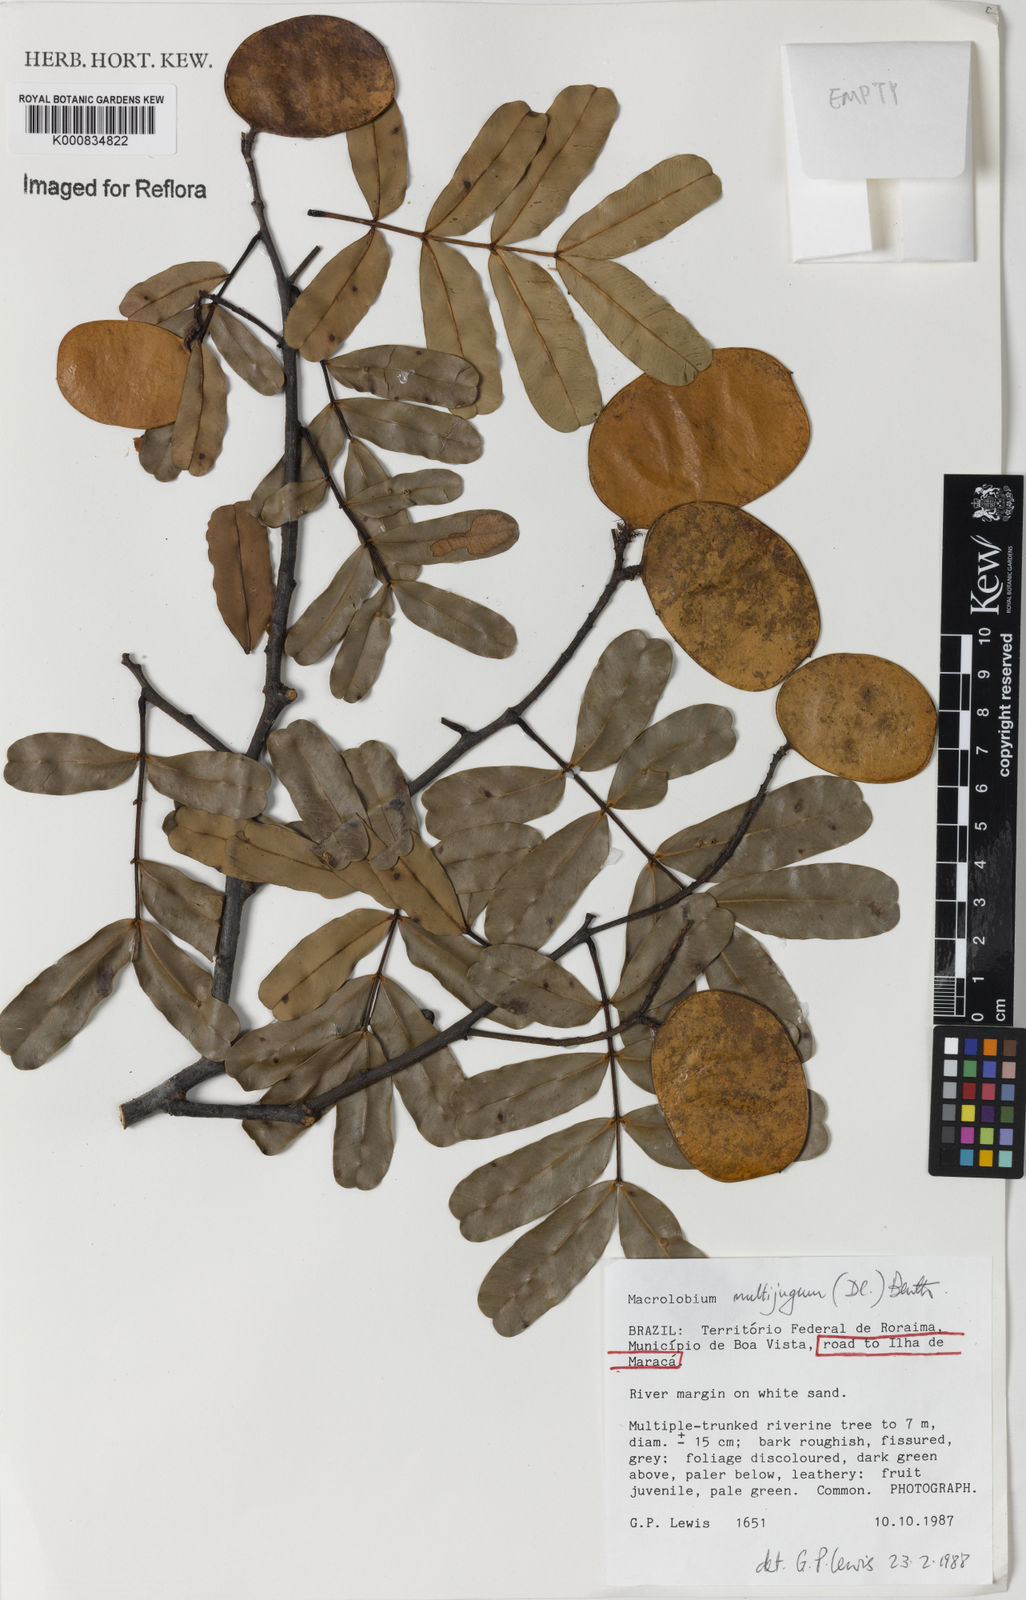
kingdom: Plantae
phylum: Tracheophyta
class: Magnoliopsida
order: Fabales
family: Fabaceae
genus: Macrolobium
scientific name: Macrolobium multijugum
